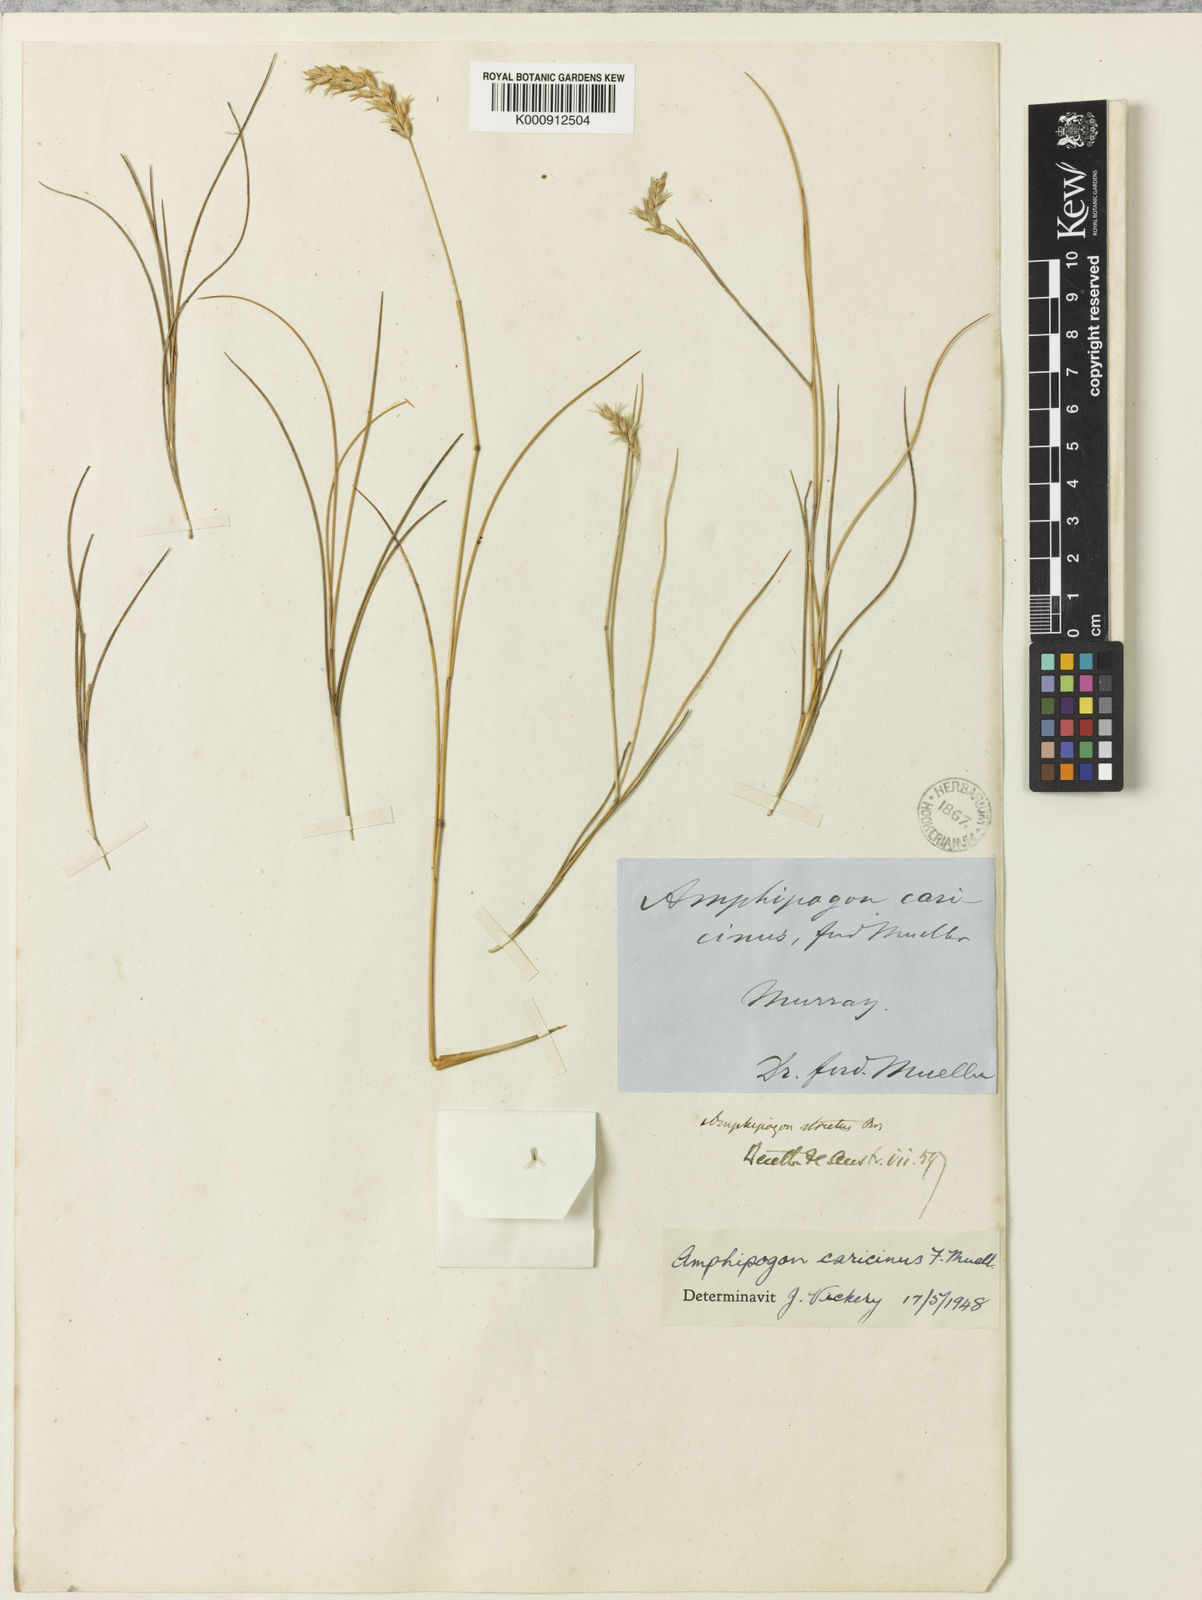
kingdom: Plantae
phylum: Tracheophyta
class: Liliopsida
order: Poales
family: Poaceae
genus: Amphipogon
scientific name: Amphipogon caricinus
